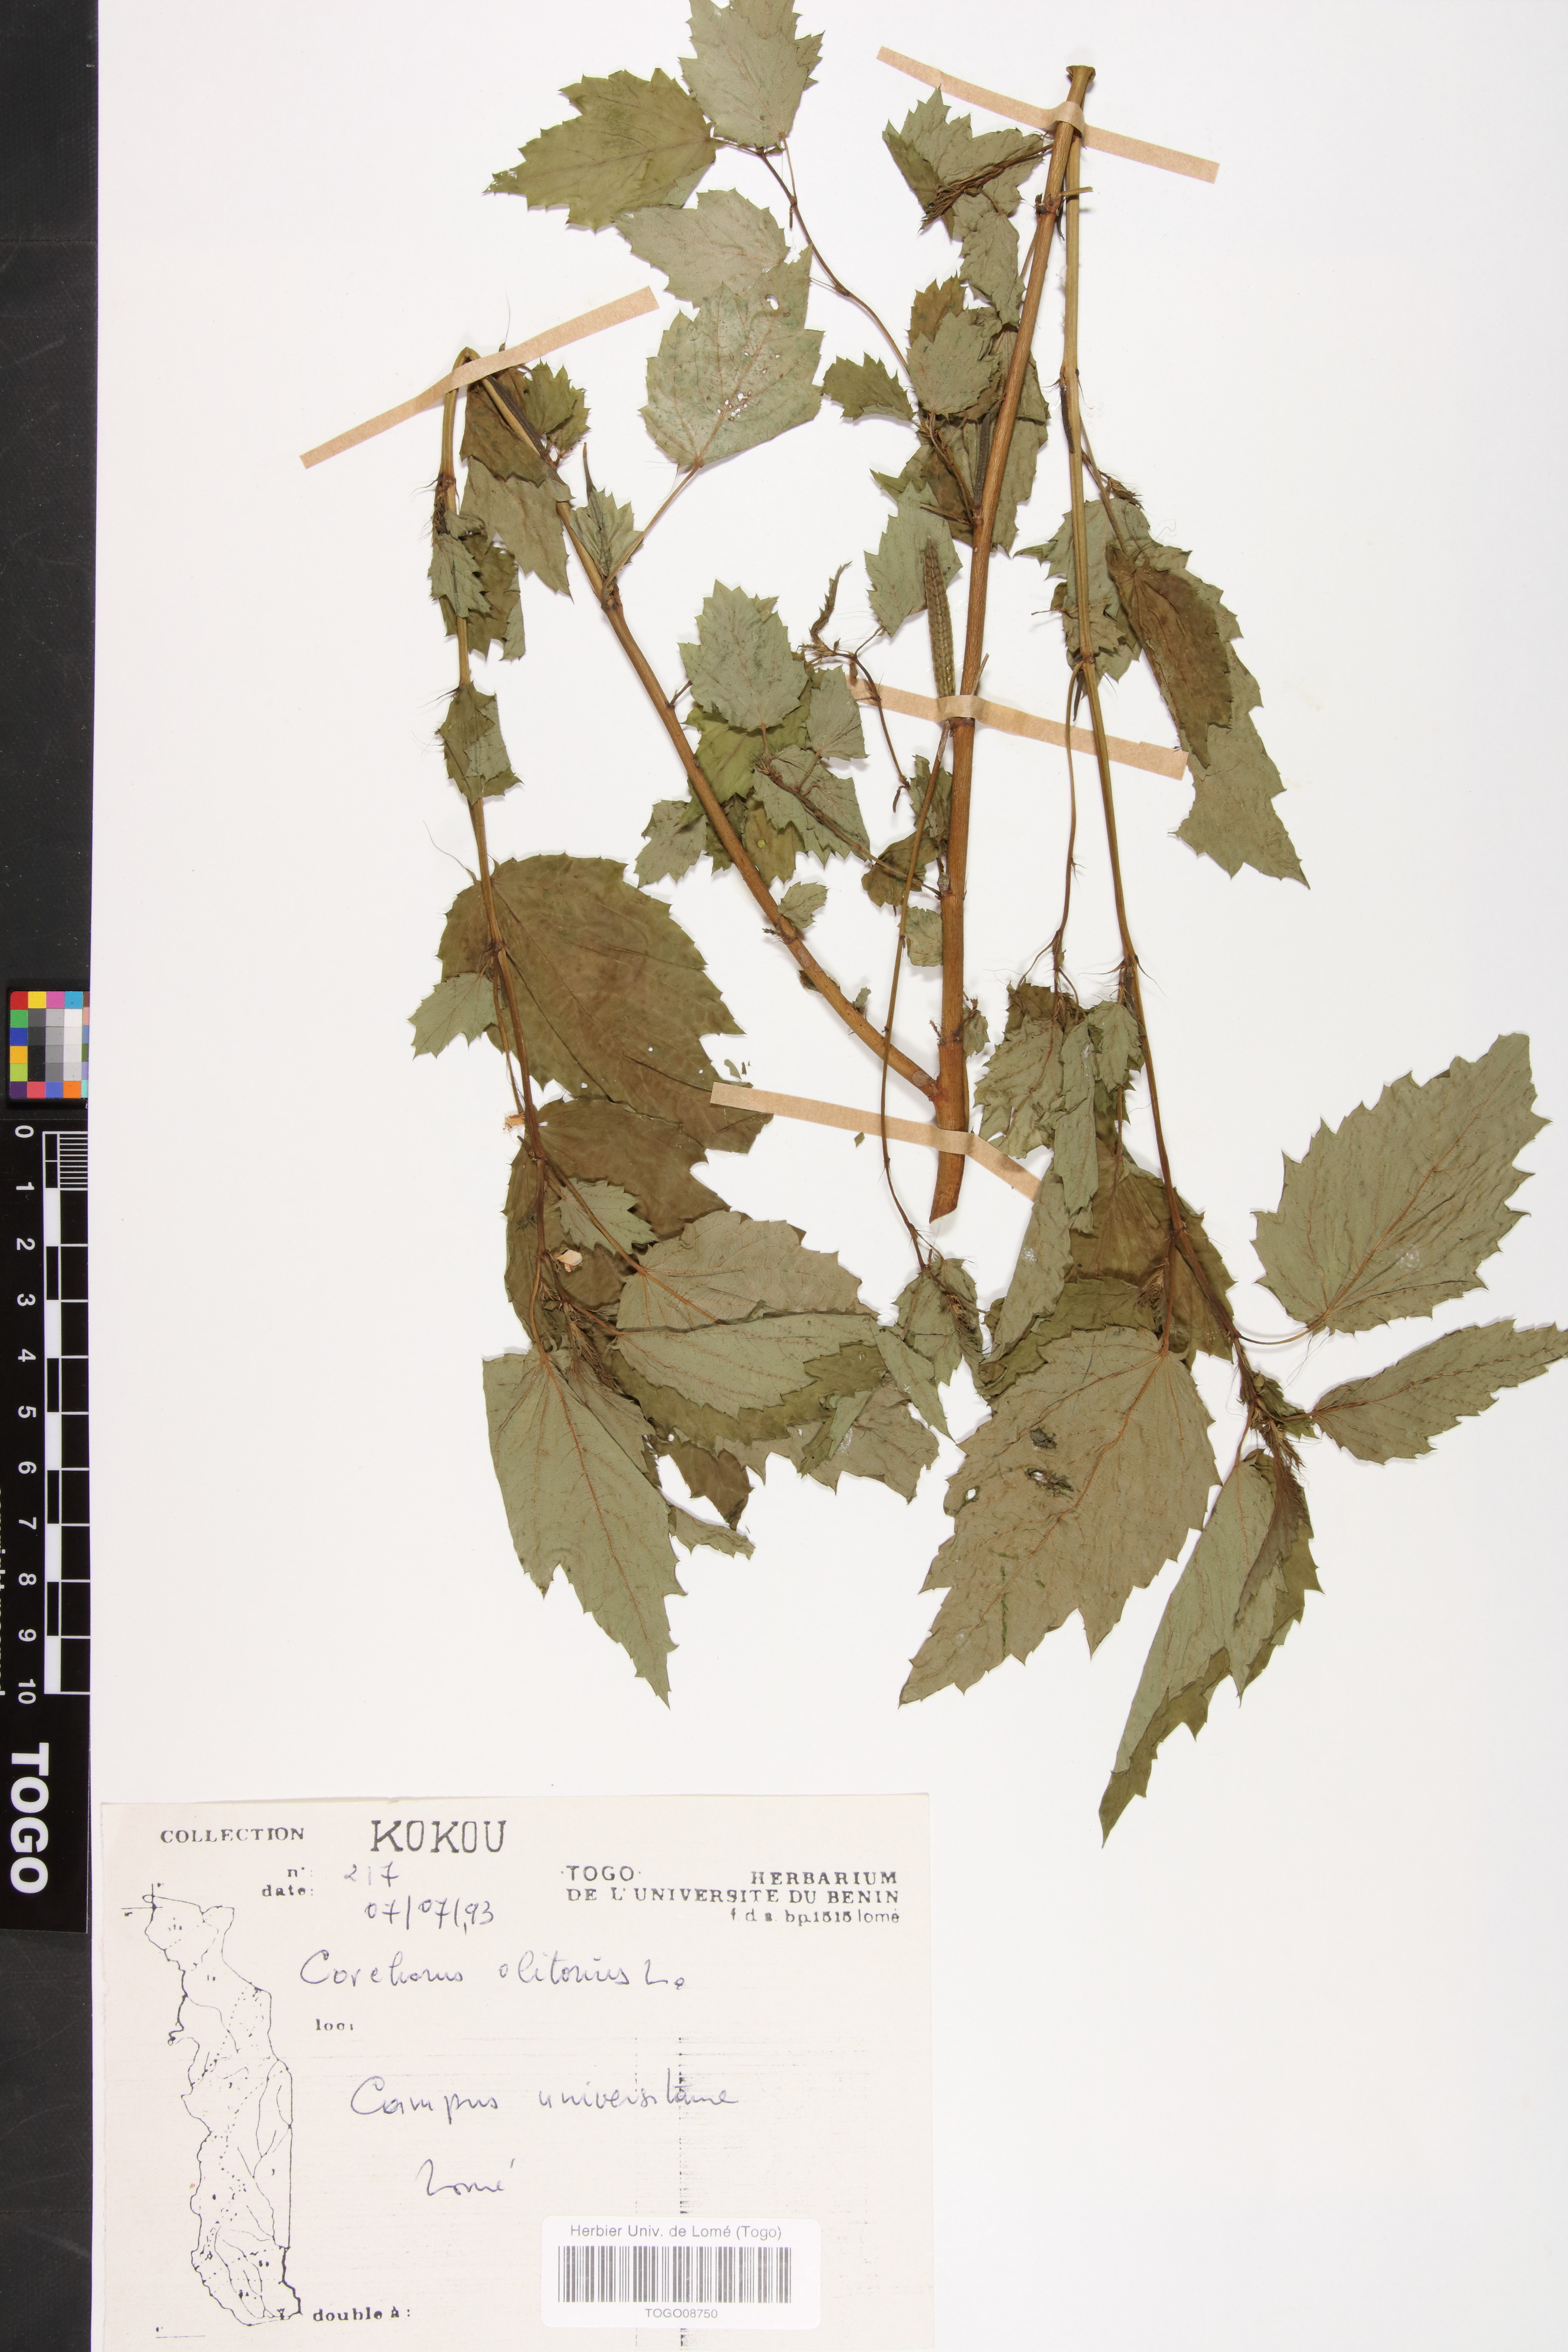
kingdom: Plantae
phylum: Tracheophyta
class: Magnoliopsida
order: Malvales
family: Malvaceae
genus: Corchorus
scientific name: Corchorus olitorius
